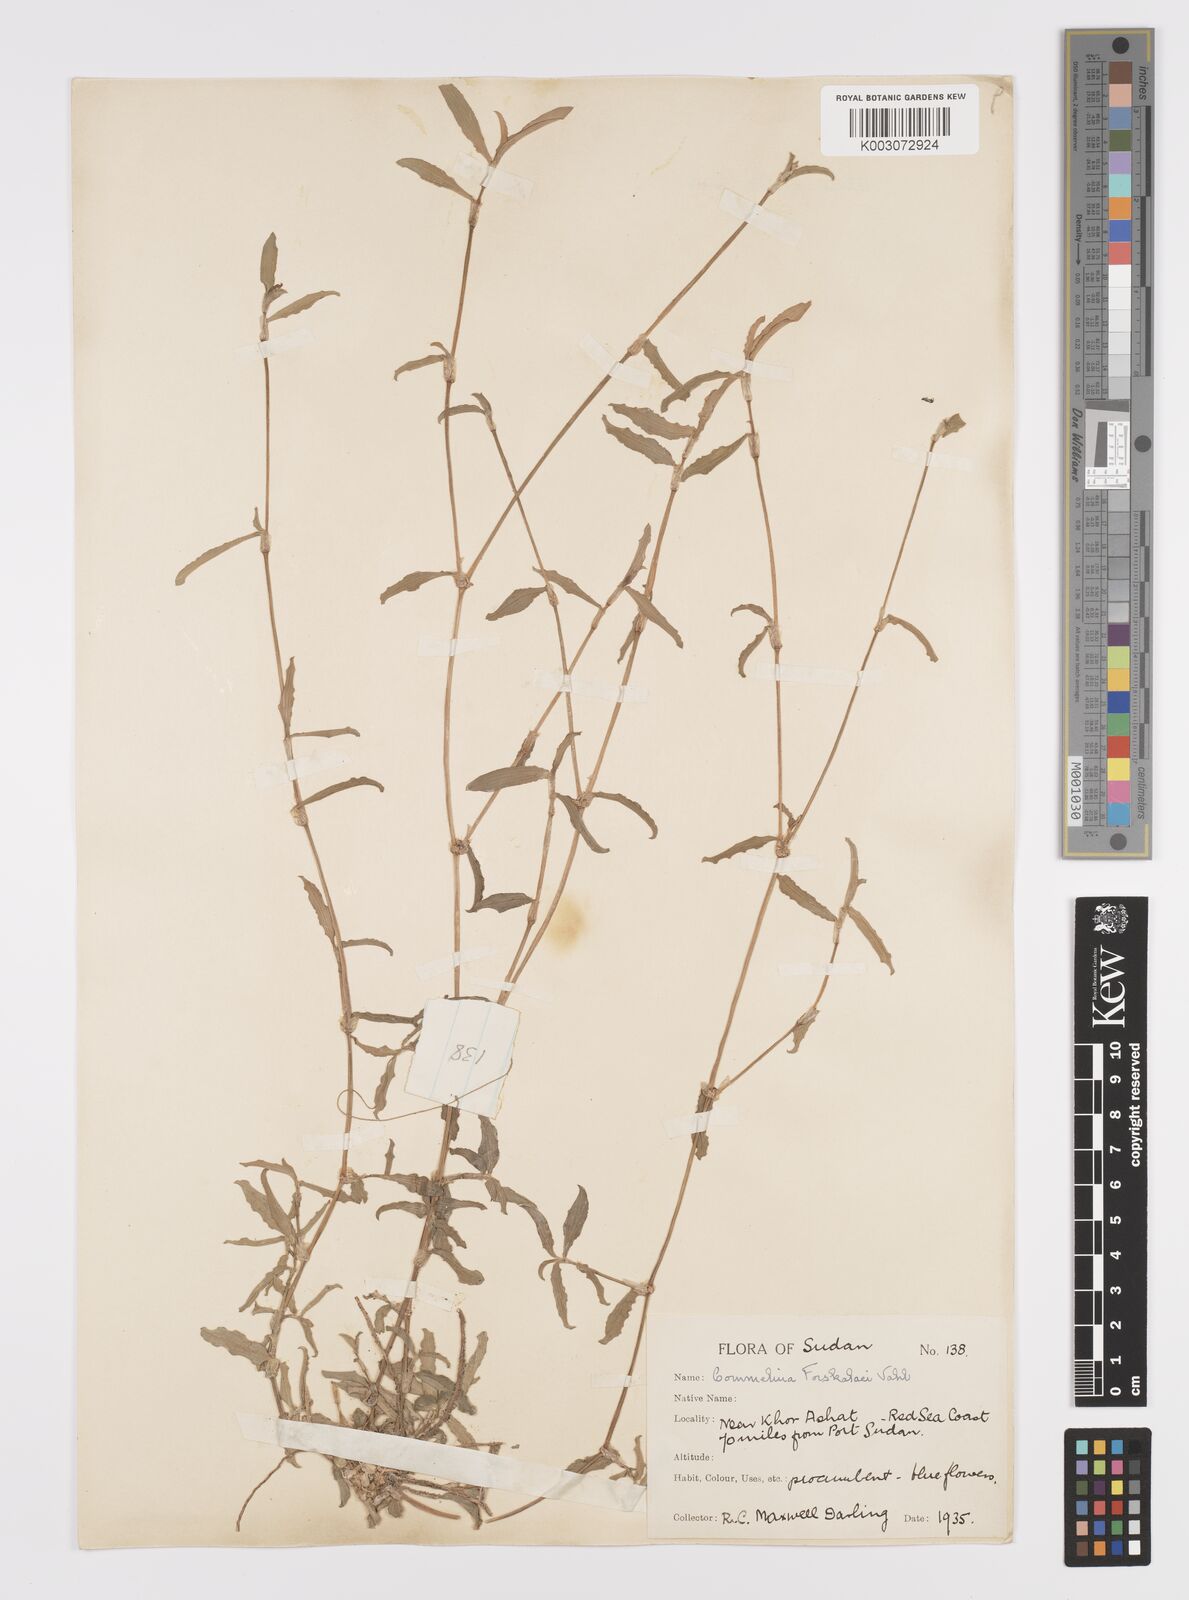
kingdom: Plantae
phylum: Tracheophyta
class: Liliopsida
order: Commelinales
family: Commelinaceae
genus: Commelina
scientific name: Commelina forskaolii
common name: Rat's ear
